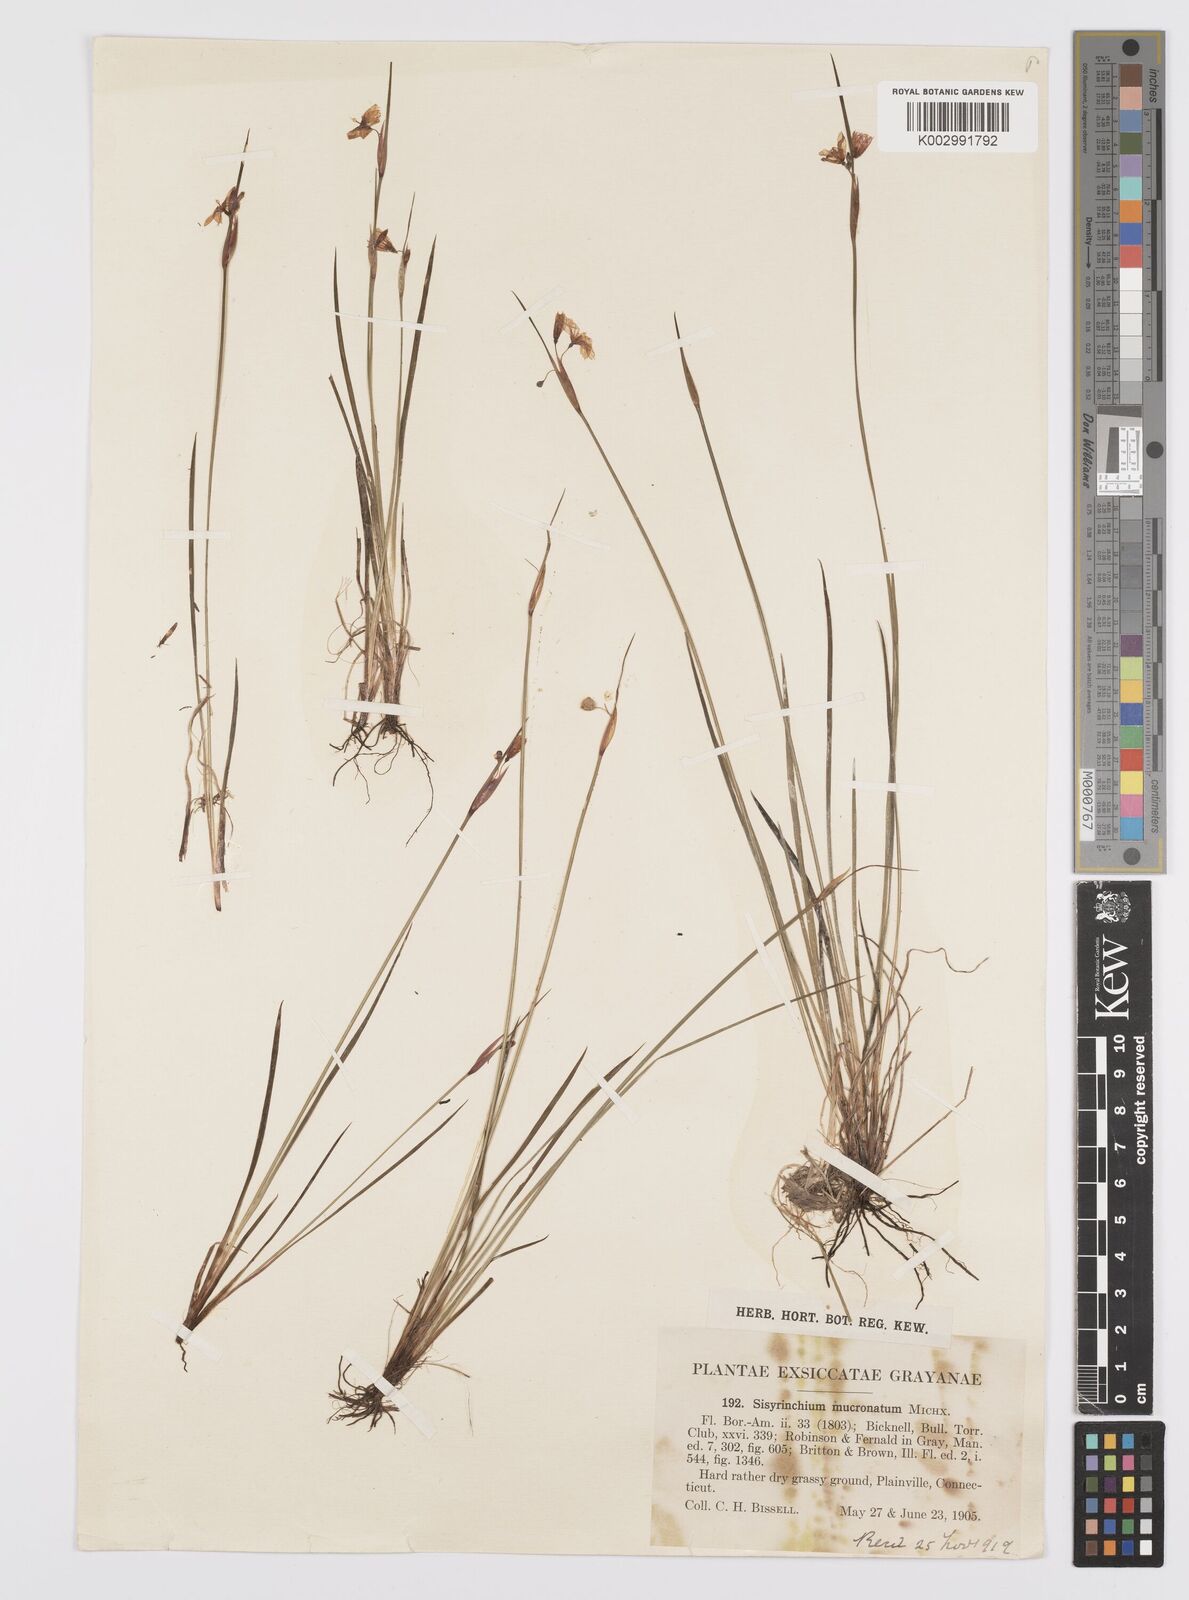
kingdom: Plantae
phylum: Tracheophyta
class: Liliopsida
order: Asparagales
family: Iridaceae
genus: Sisyrinchium
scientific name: Sisyrinchium bermudiana
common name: Blue-eyed-grass
